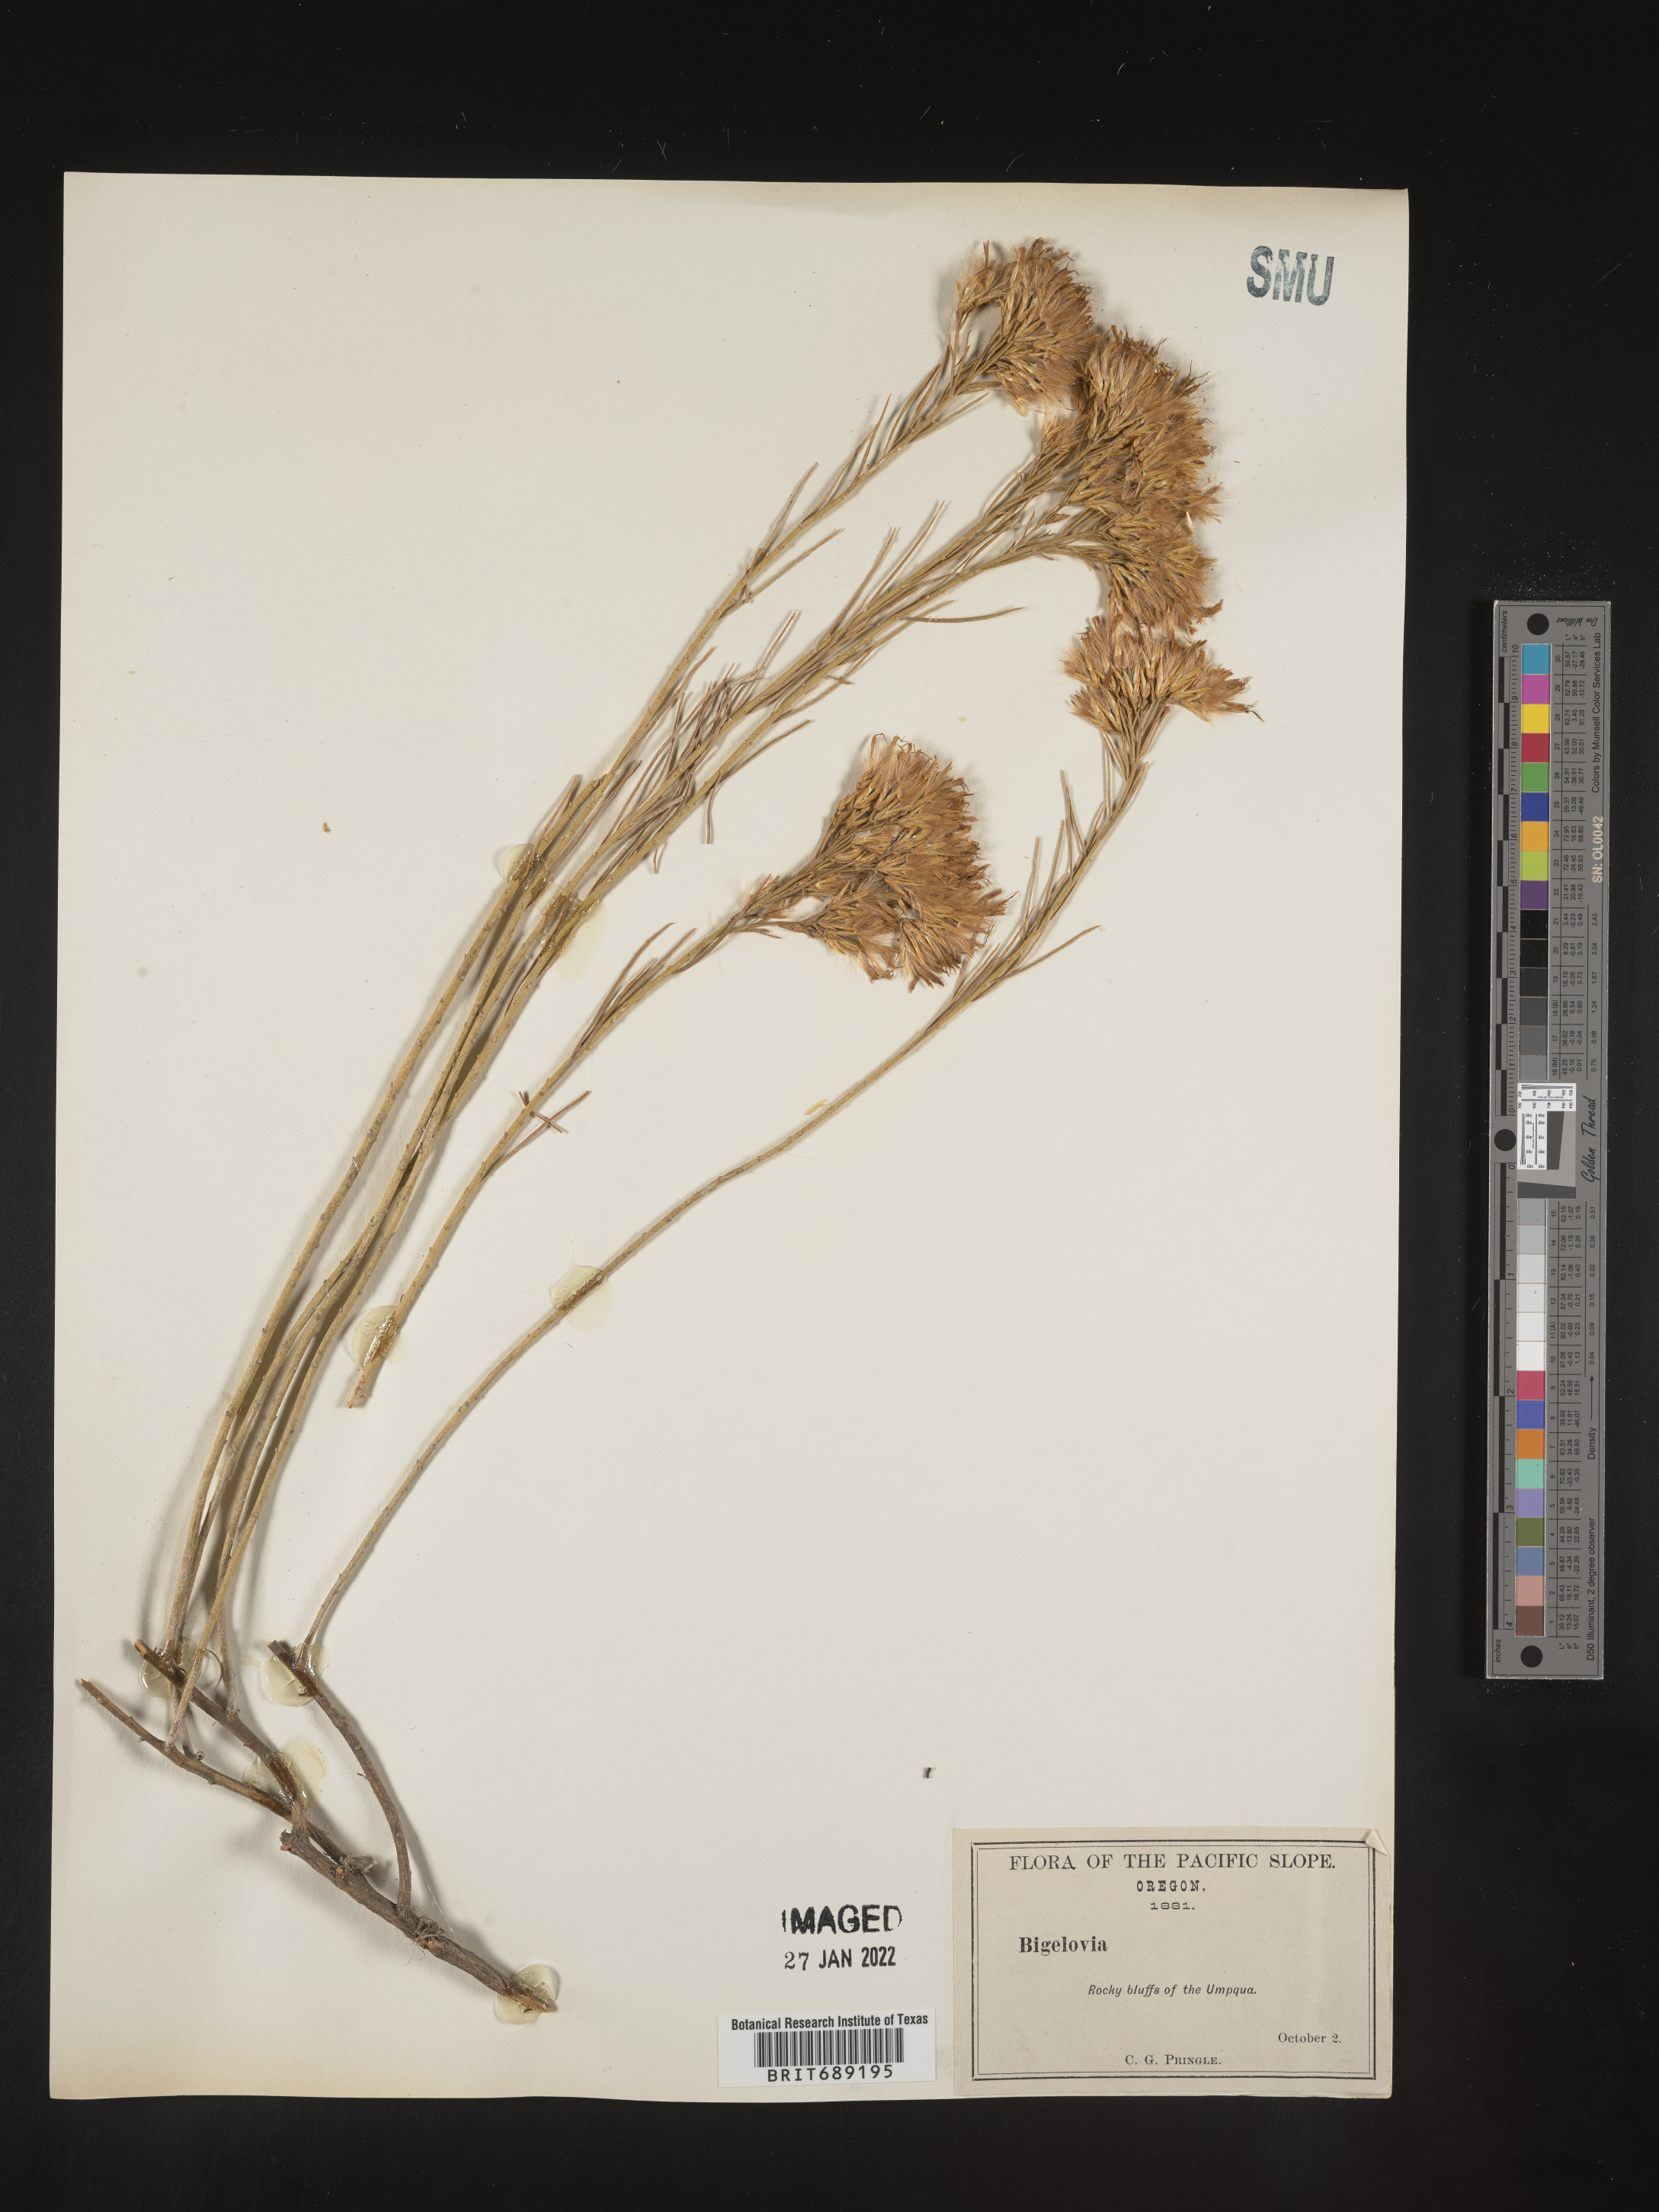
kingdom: Plantae
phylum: Tracheophyta
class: Magnoliopsida
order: Asterales
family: Asteraceae
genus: Chrysothamnus
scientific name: Chrysothamnus
